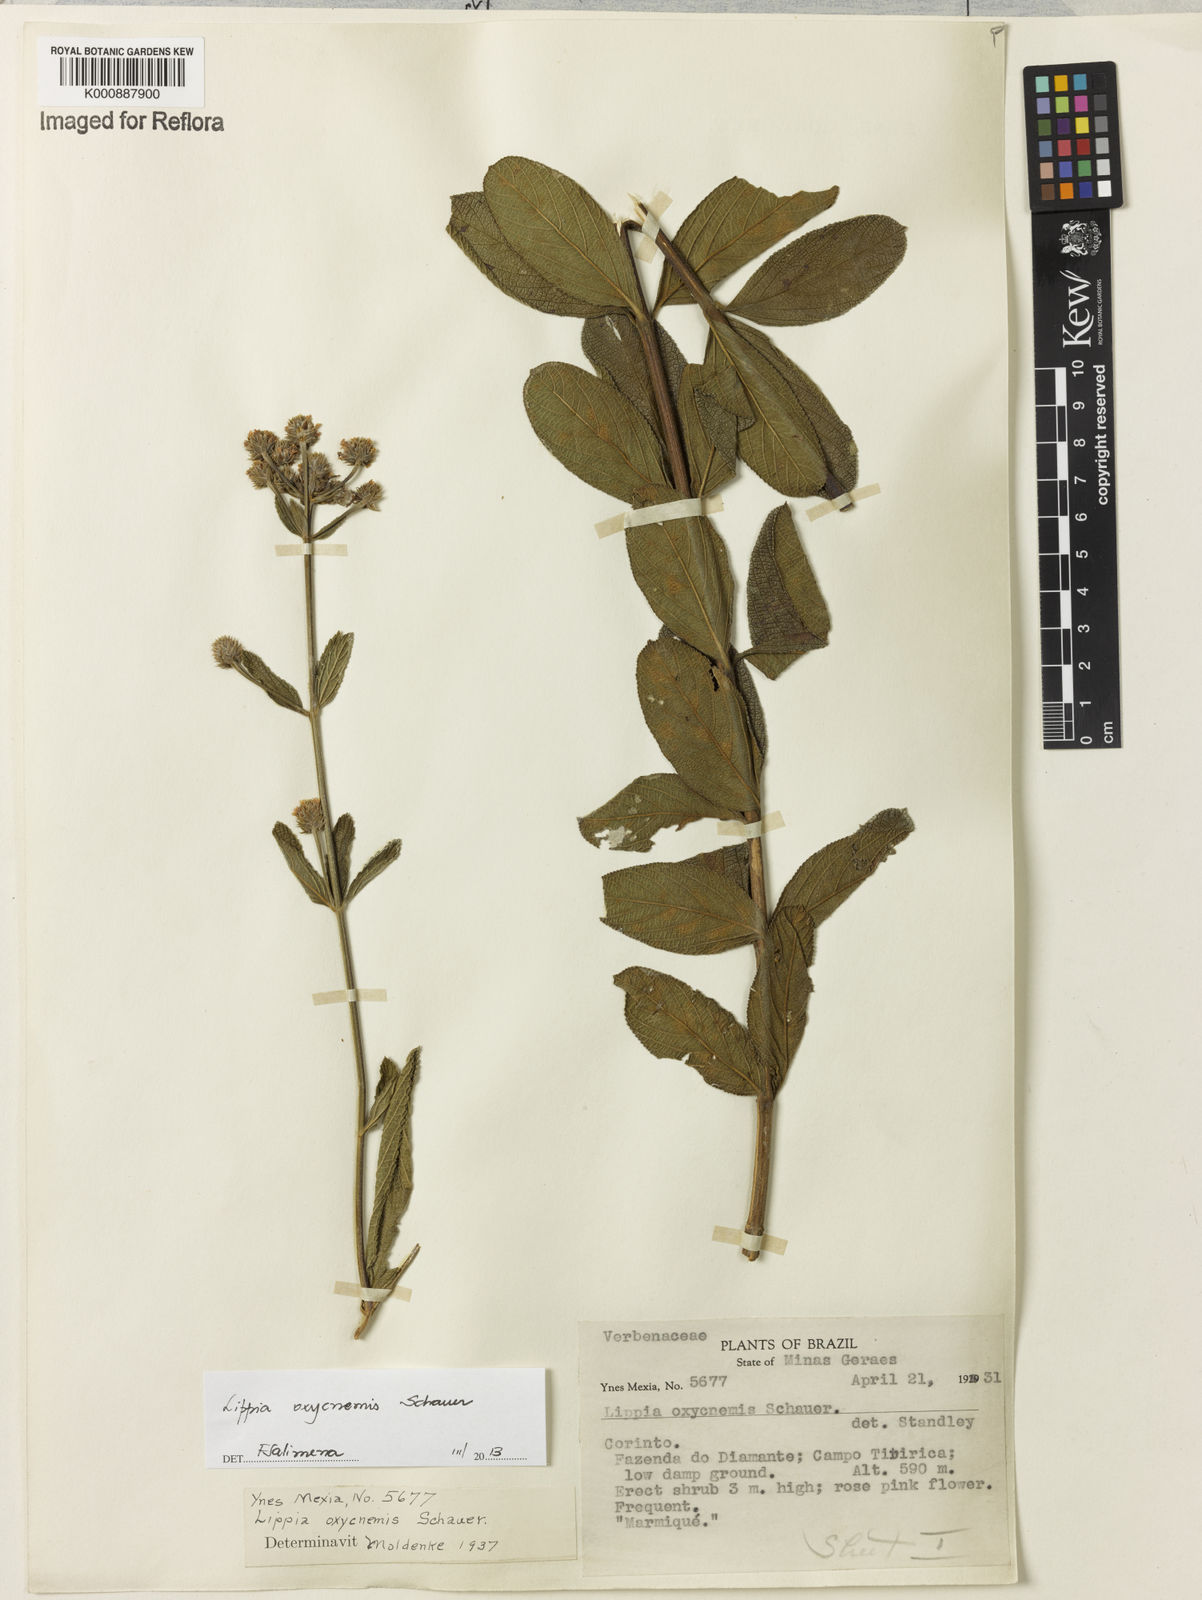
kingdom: Plantae
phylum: Tracheophyta
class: Magnoliopsida
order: Lamiales
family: Verbenaceae
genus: Lippia
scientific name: Lippia oxycnemis
